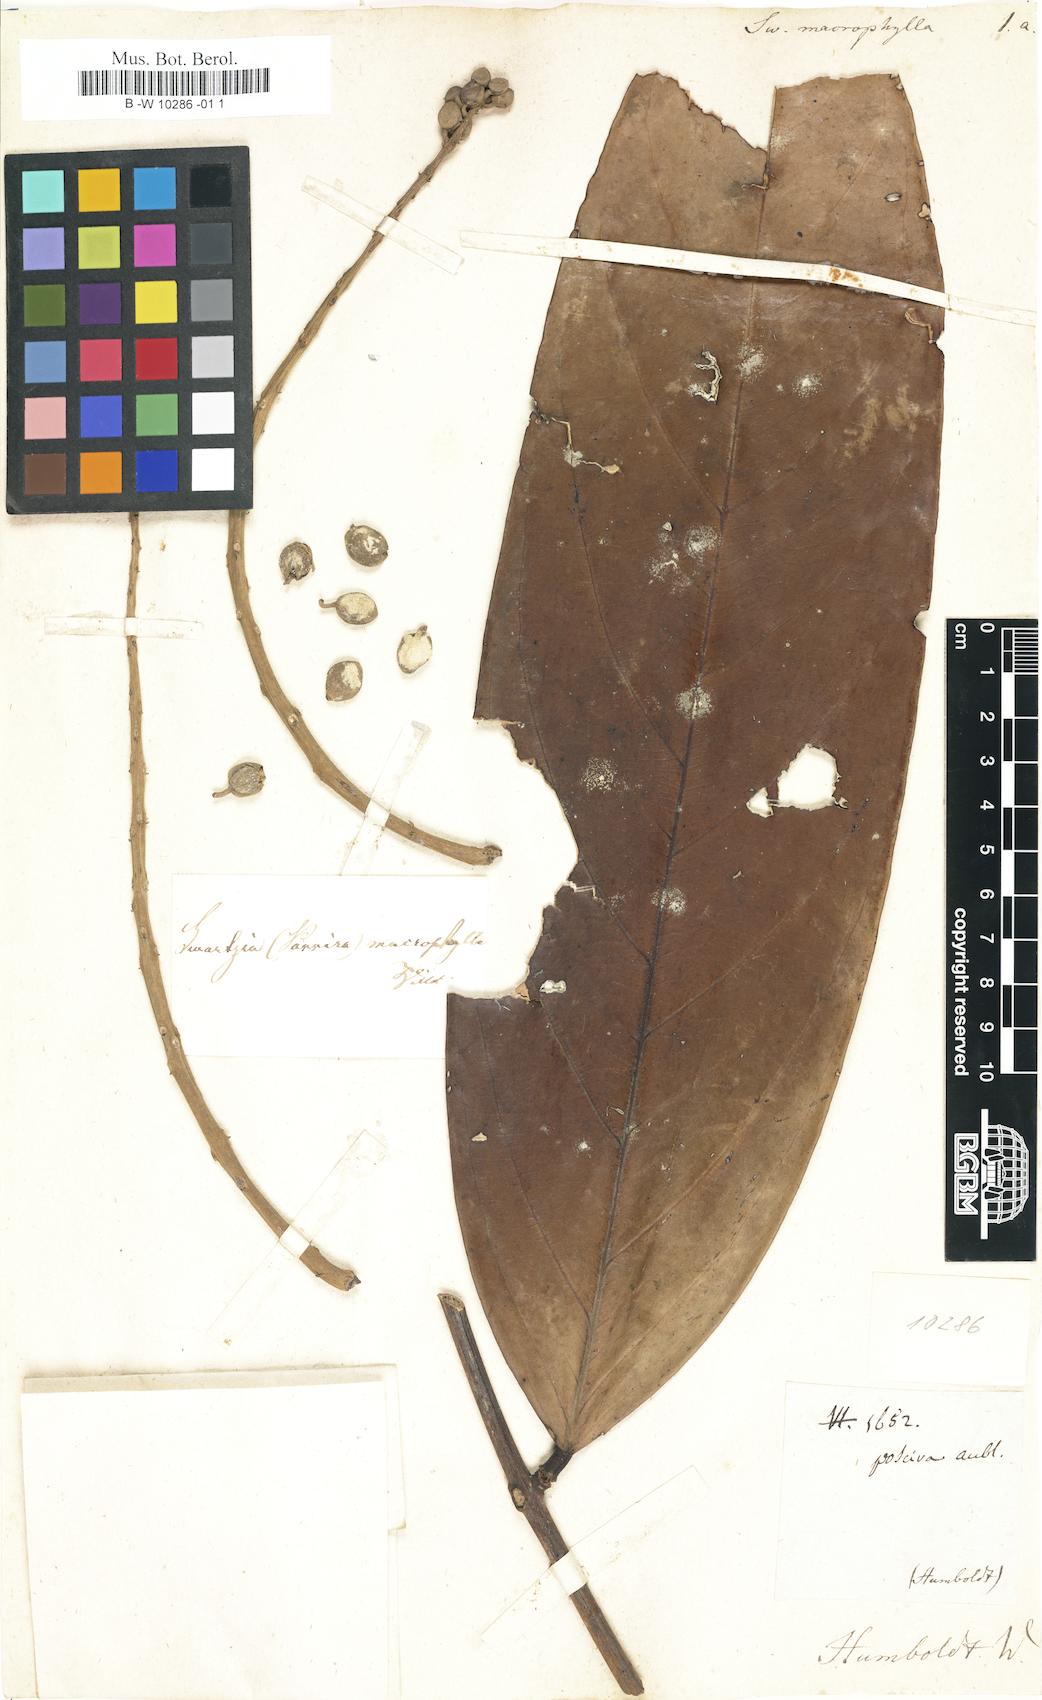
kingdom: Plantae
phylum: Tracheophyta
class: Magnoliopsida
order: Fabales
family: Fabaceae
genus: Swartzia
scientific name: Swartzia macrophylla
